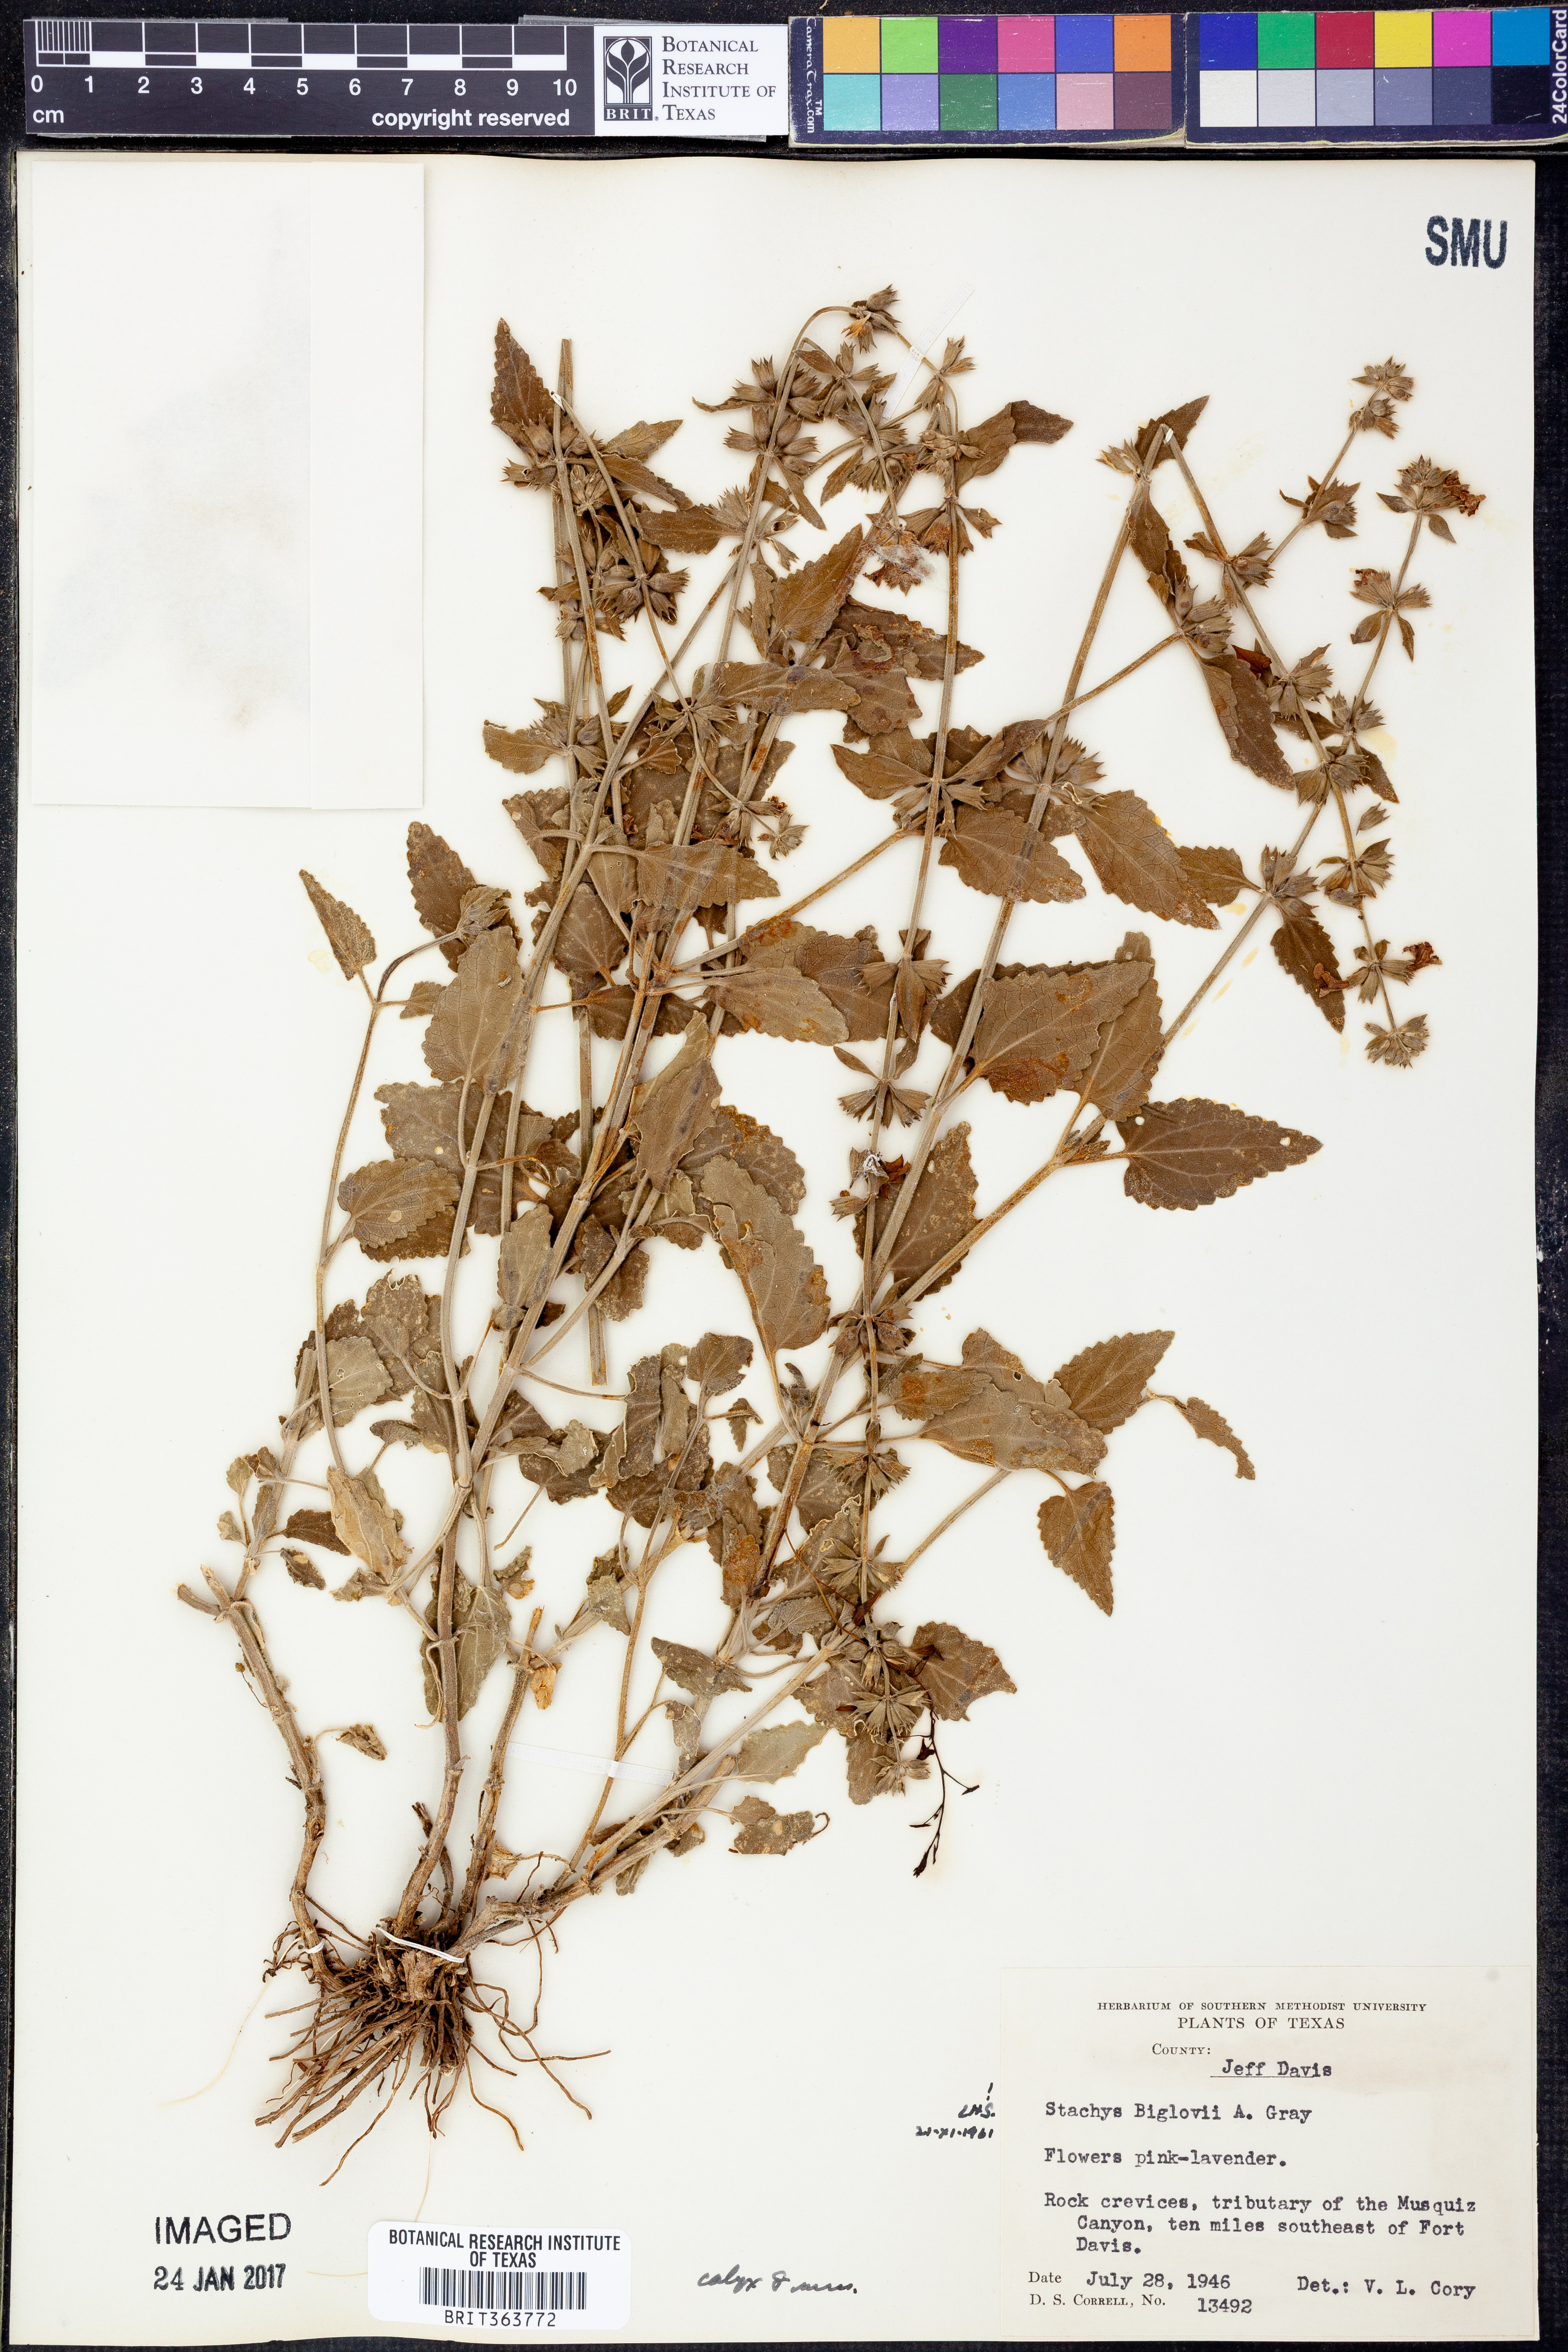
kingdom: Plantae
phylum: Tracheophyta
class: Magnoliopsida
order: Lamiales
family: Lamiaceae
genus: Stachys
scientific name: Stachys bigelovii
